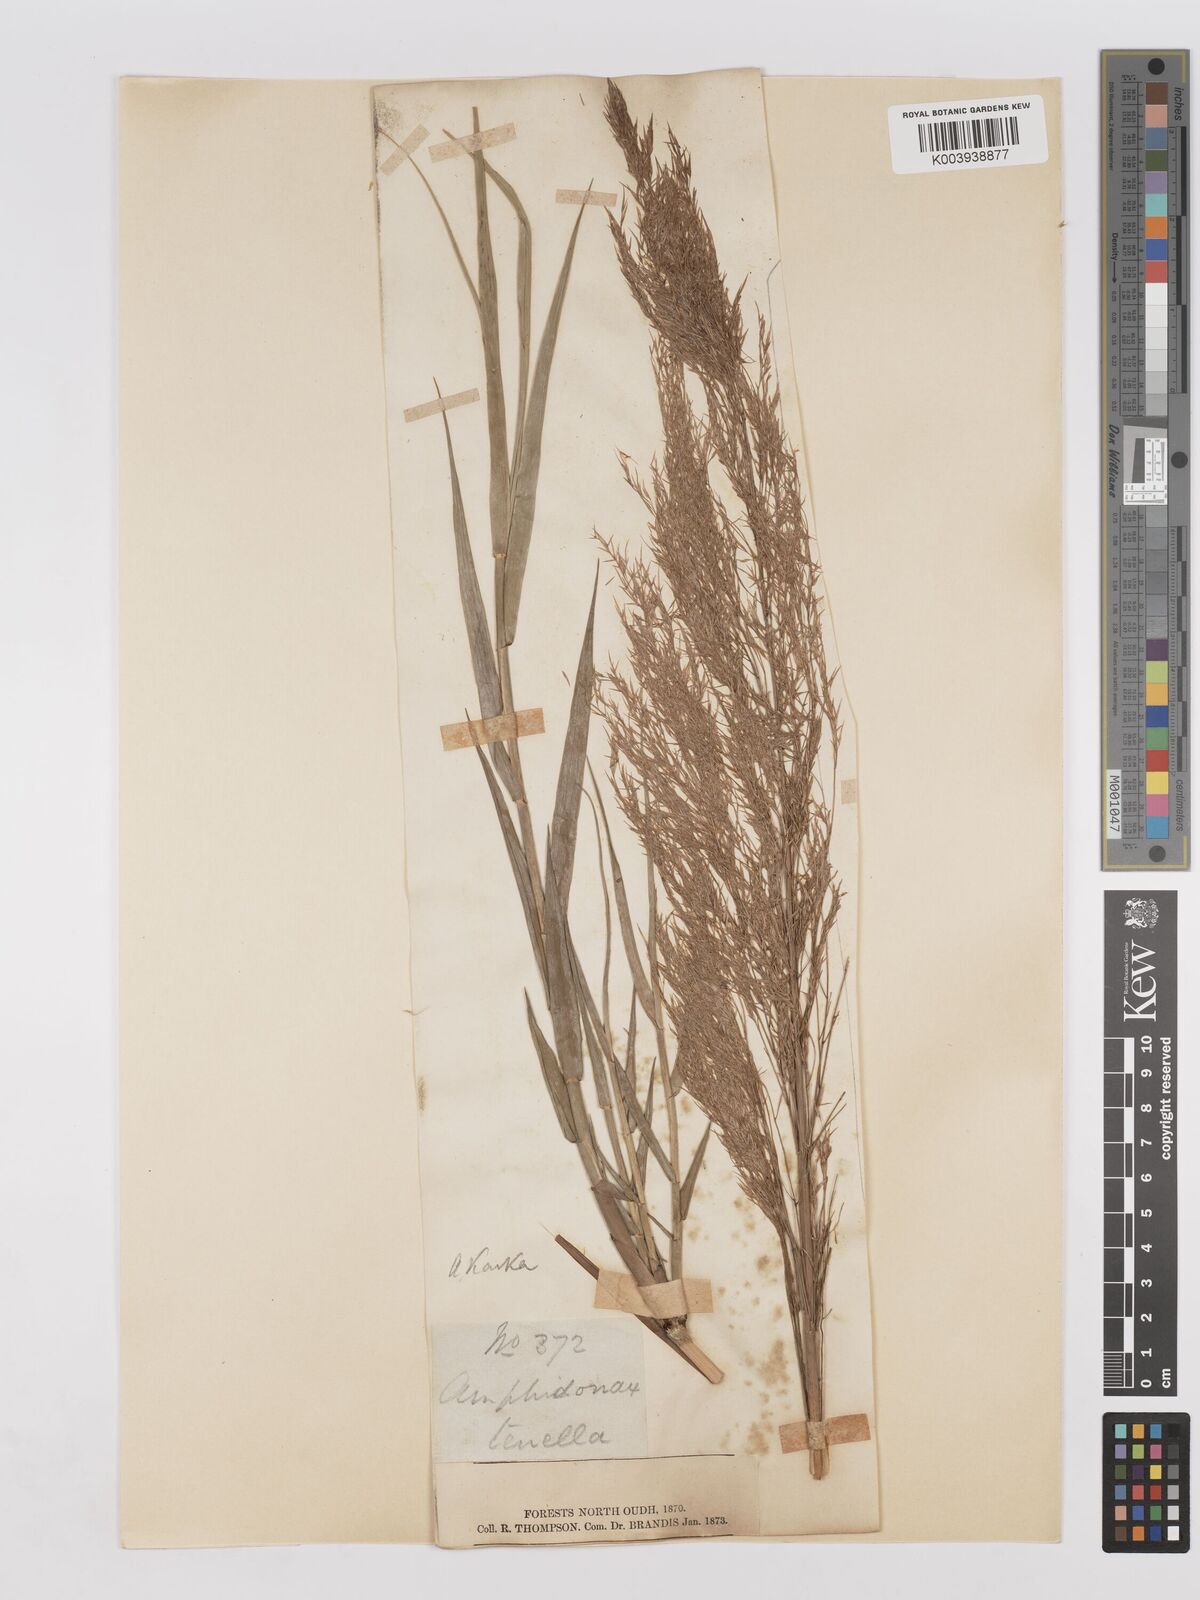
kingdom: Plantae
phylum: Tracheophyta
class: Liliopsida
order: Poales
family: Poaceae
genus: Phragmites
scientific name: Phragmites karka
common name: Tropical reed
